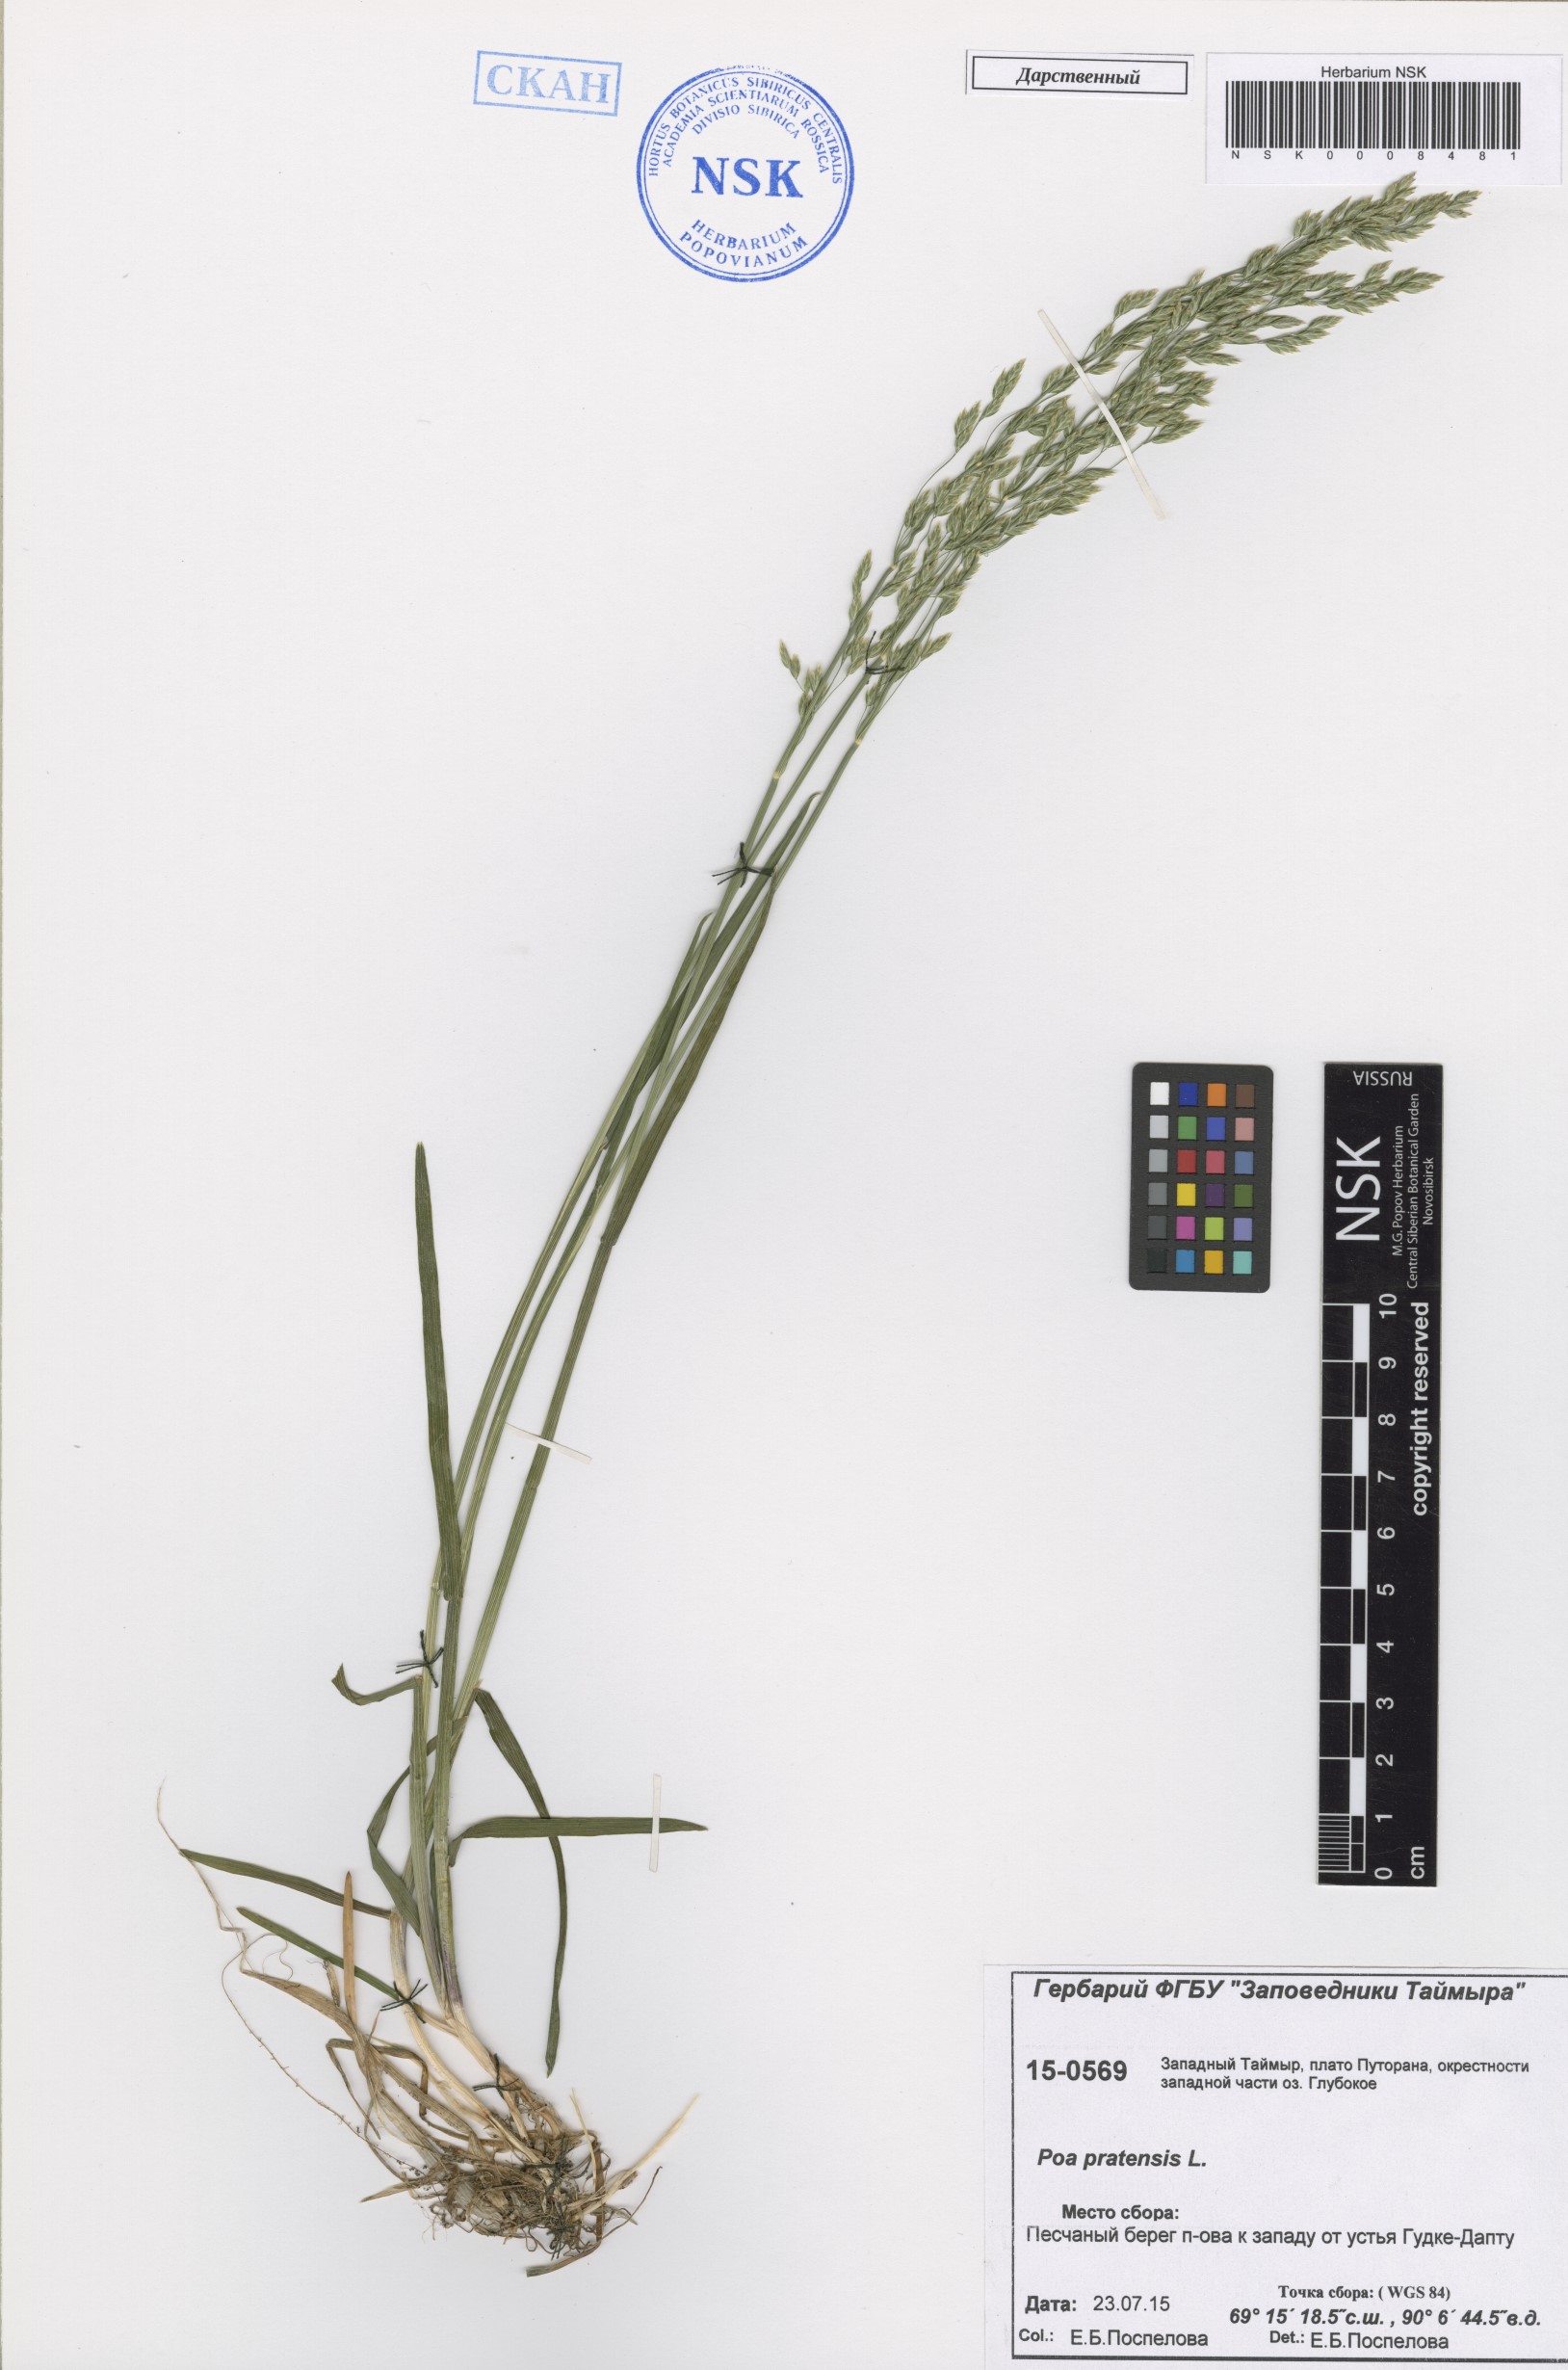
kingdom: Plantae
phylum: Tracheophyta
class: Liliopsida
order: Poales
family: Poaceae
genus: Poa
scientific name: Poa pratensis
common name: Kentucky bluegrass
